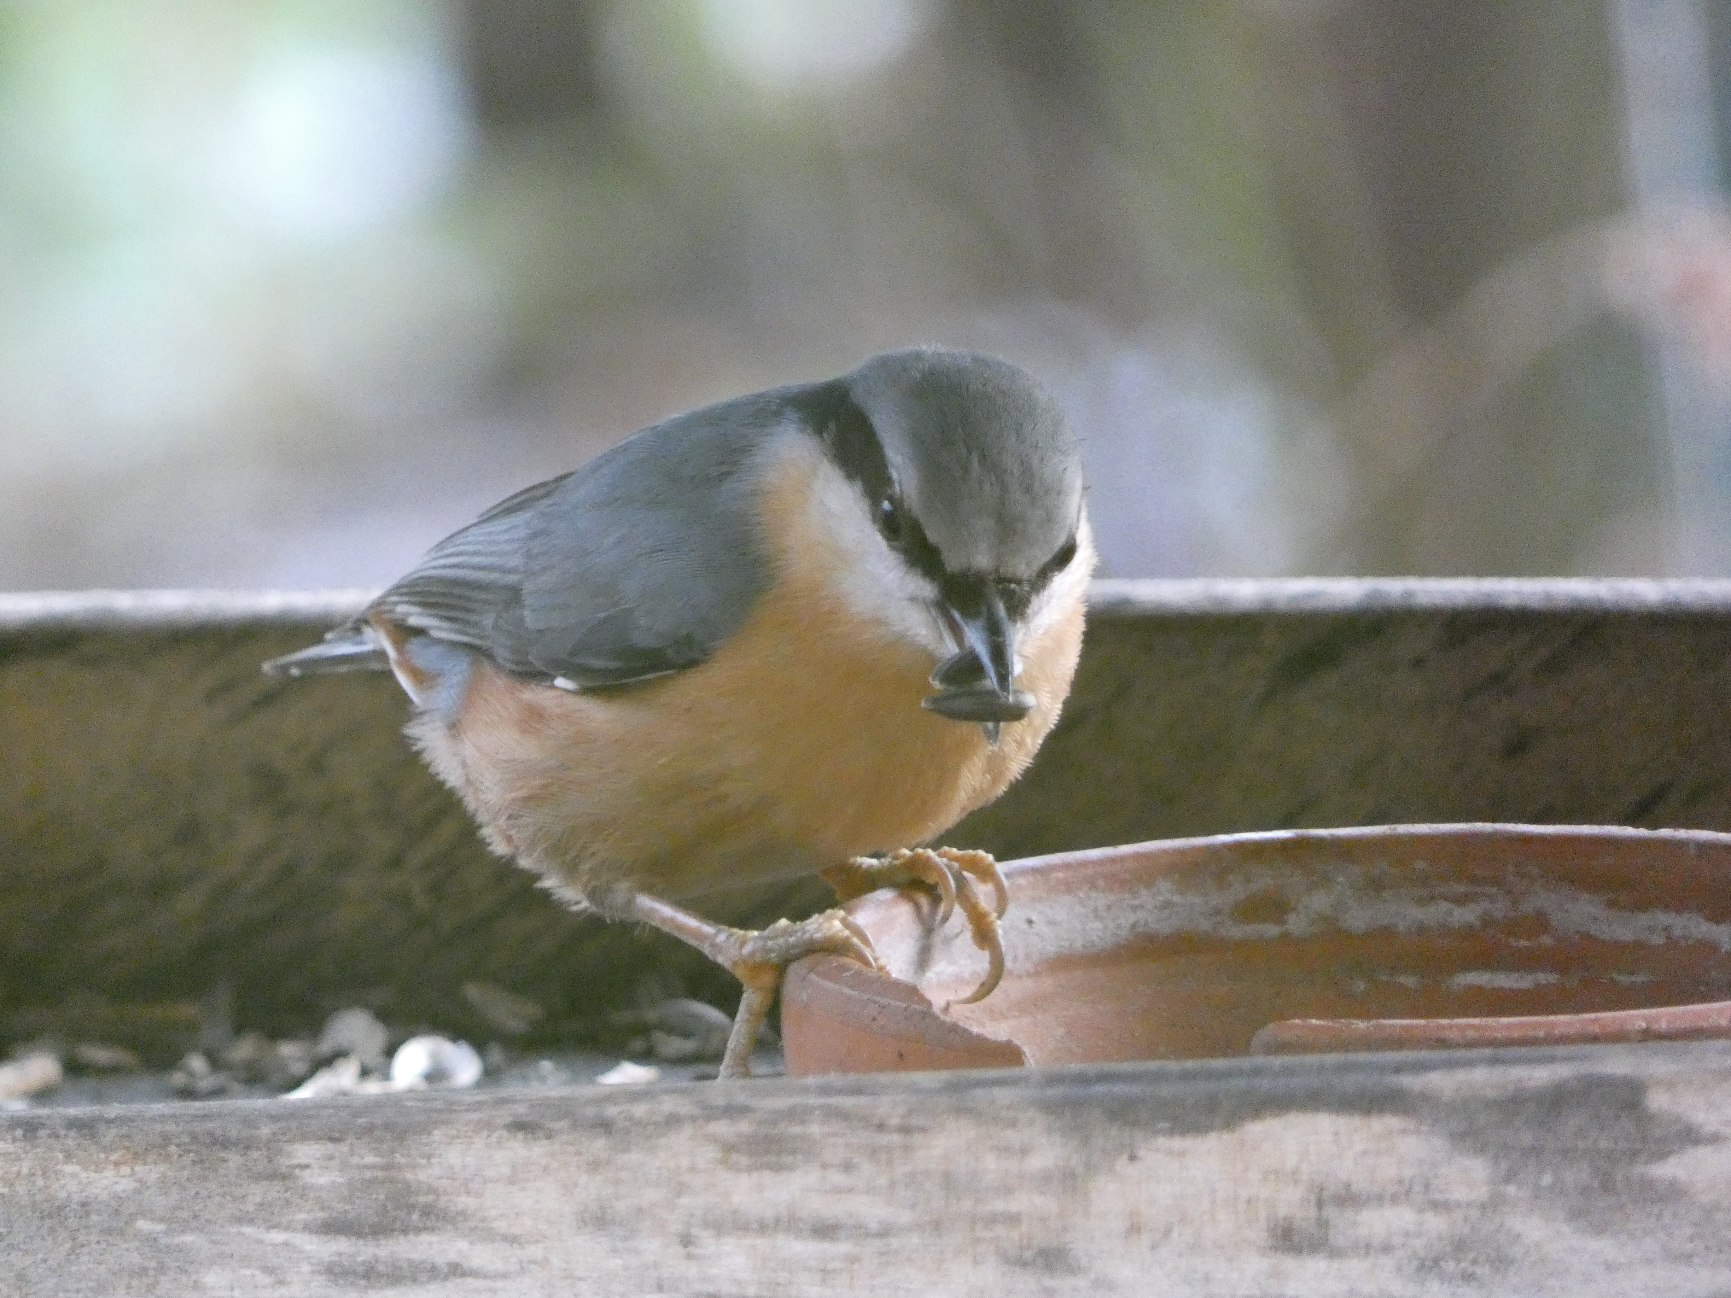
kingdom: Animalia
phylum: Chordata
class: Aves
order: Passeriformes
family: Sittidae
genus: Sitta
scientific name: Sitta europaea
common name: Spætmejse
